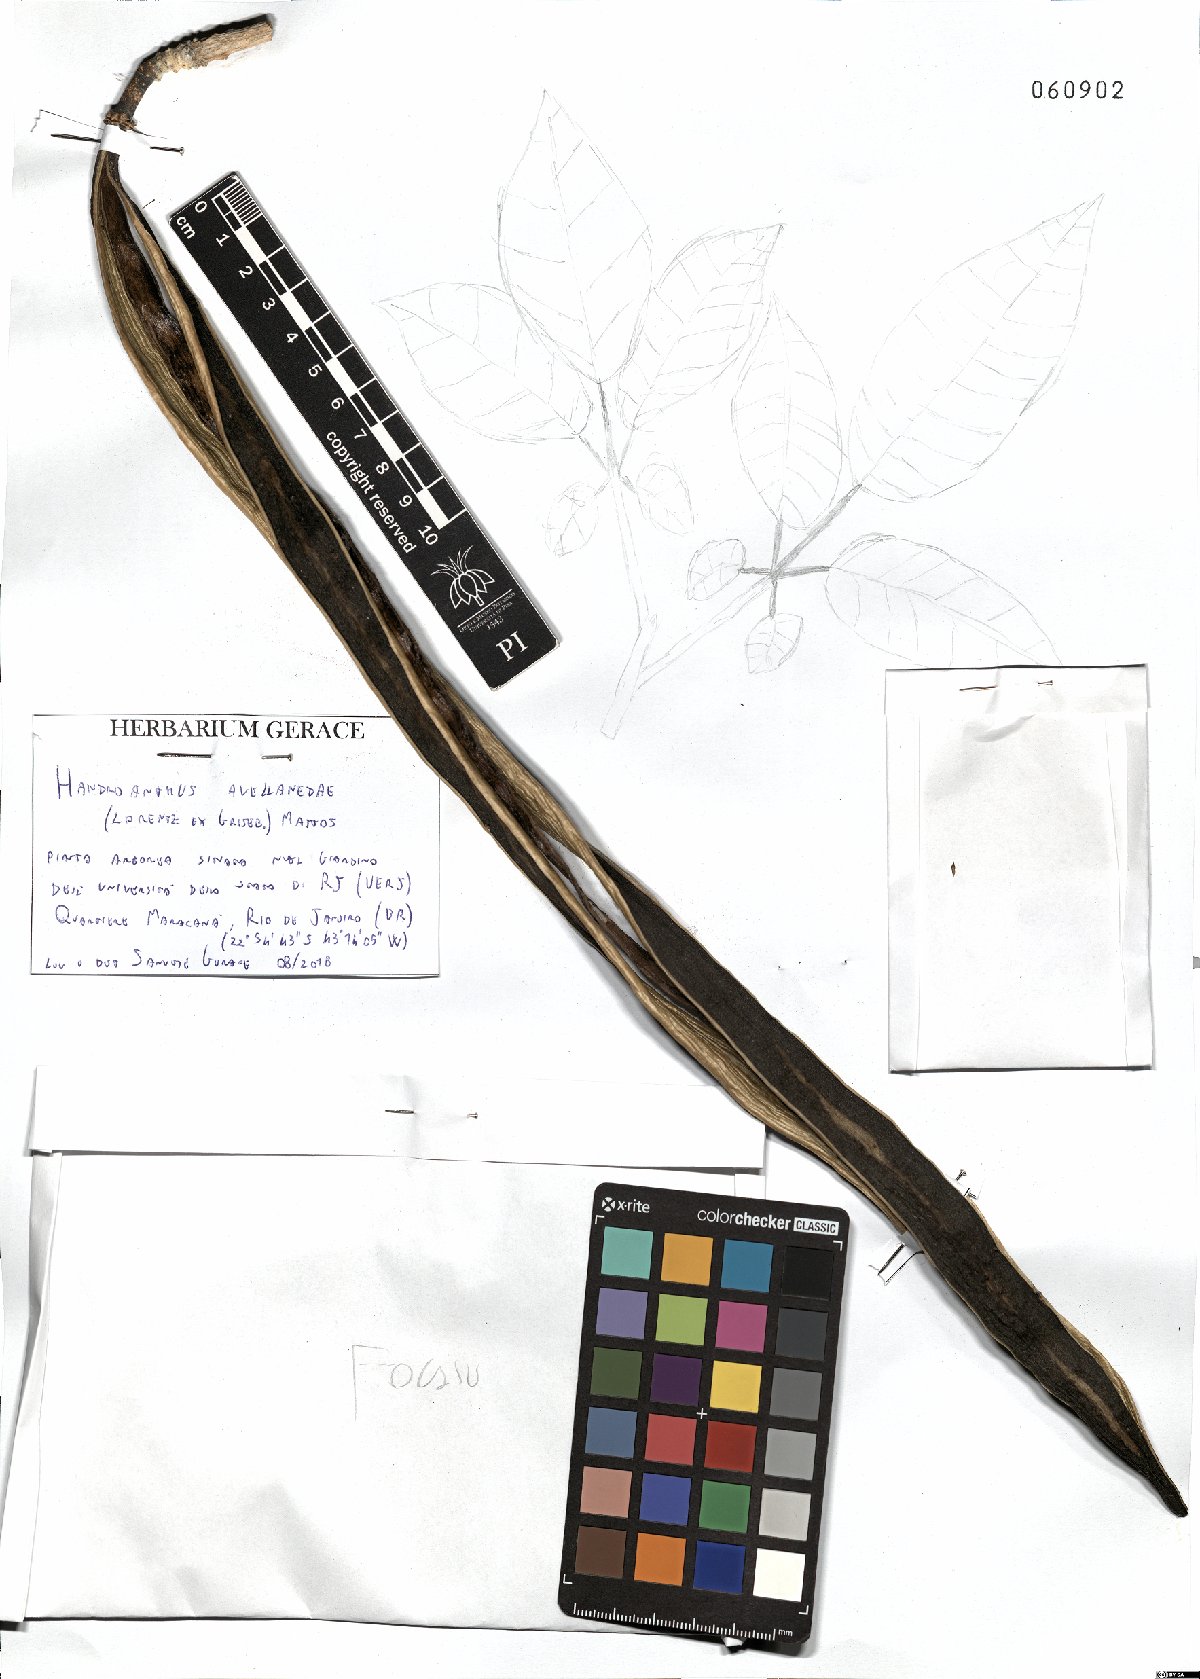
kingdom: Plantae
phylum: Tracheophyta
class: Magnoliopsida
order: Lamiales
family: Bignoniaceae
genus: Handroanthus
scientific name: Handroanthus impetiginosum
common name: Pink trumpet tree
